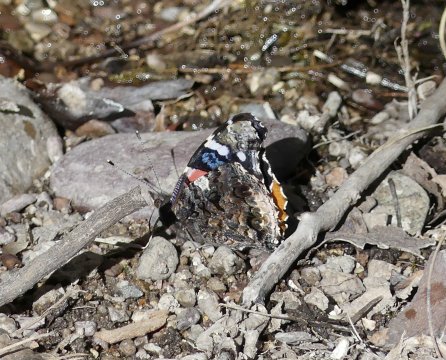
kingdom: Animalia
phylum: Arthropoda
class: Insecta
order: Lepidoptera
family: Nymphalidae
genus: Vanessa
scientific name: Vanessa atalanta
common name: Red Admiral
